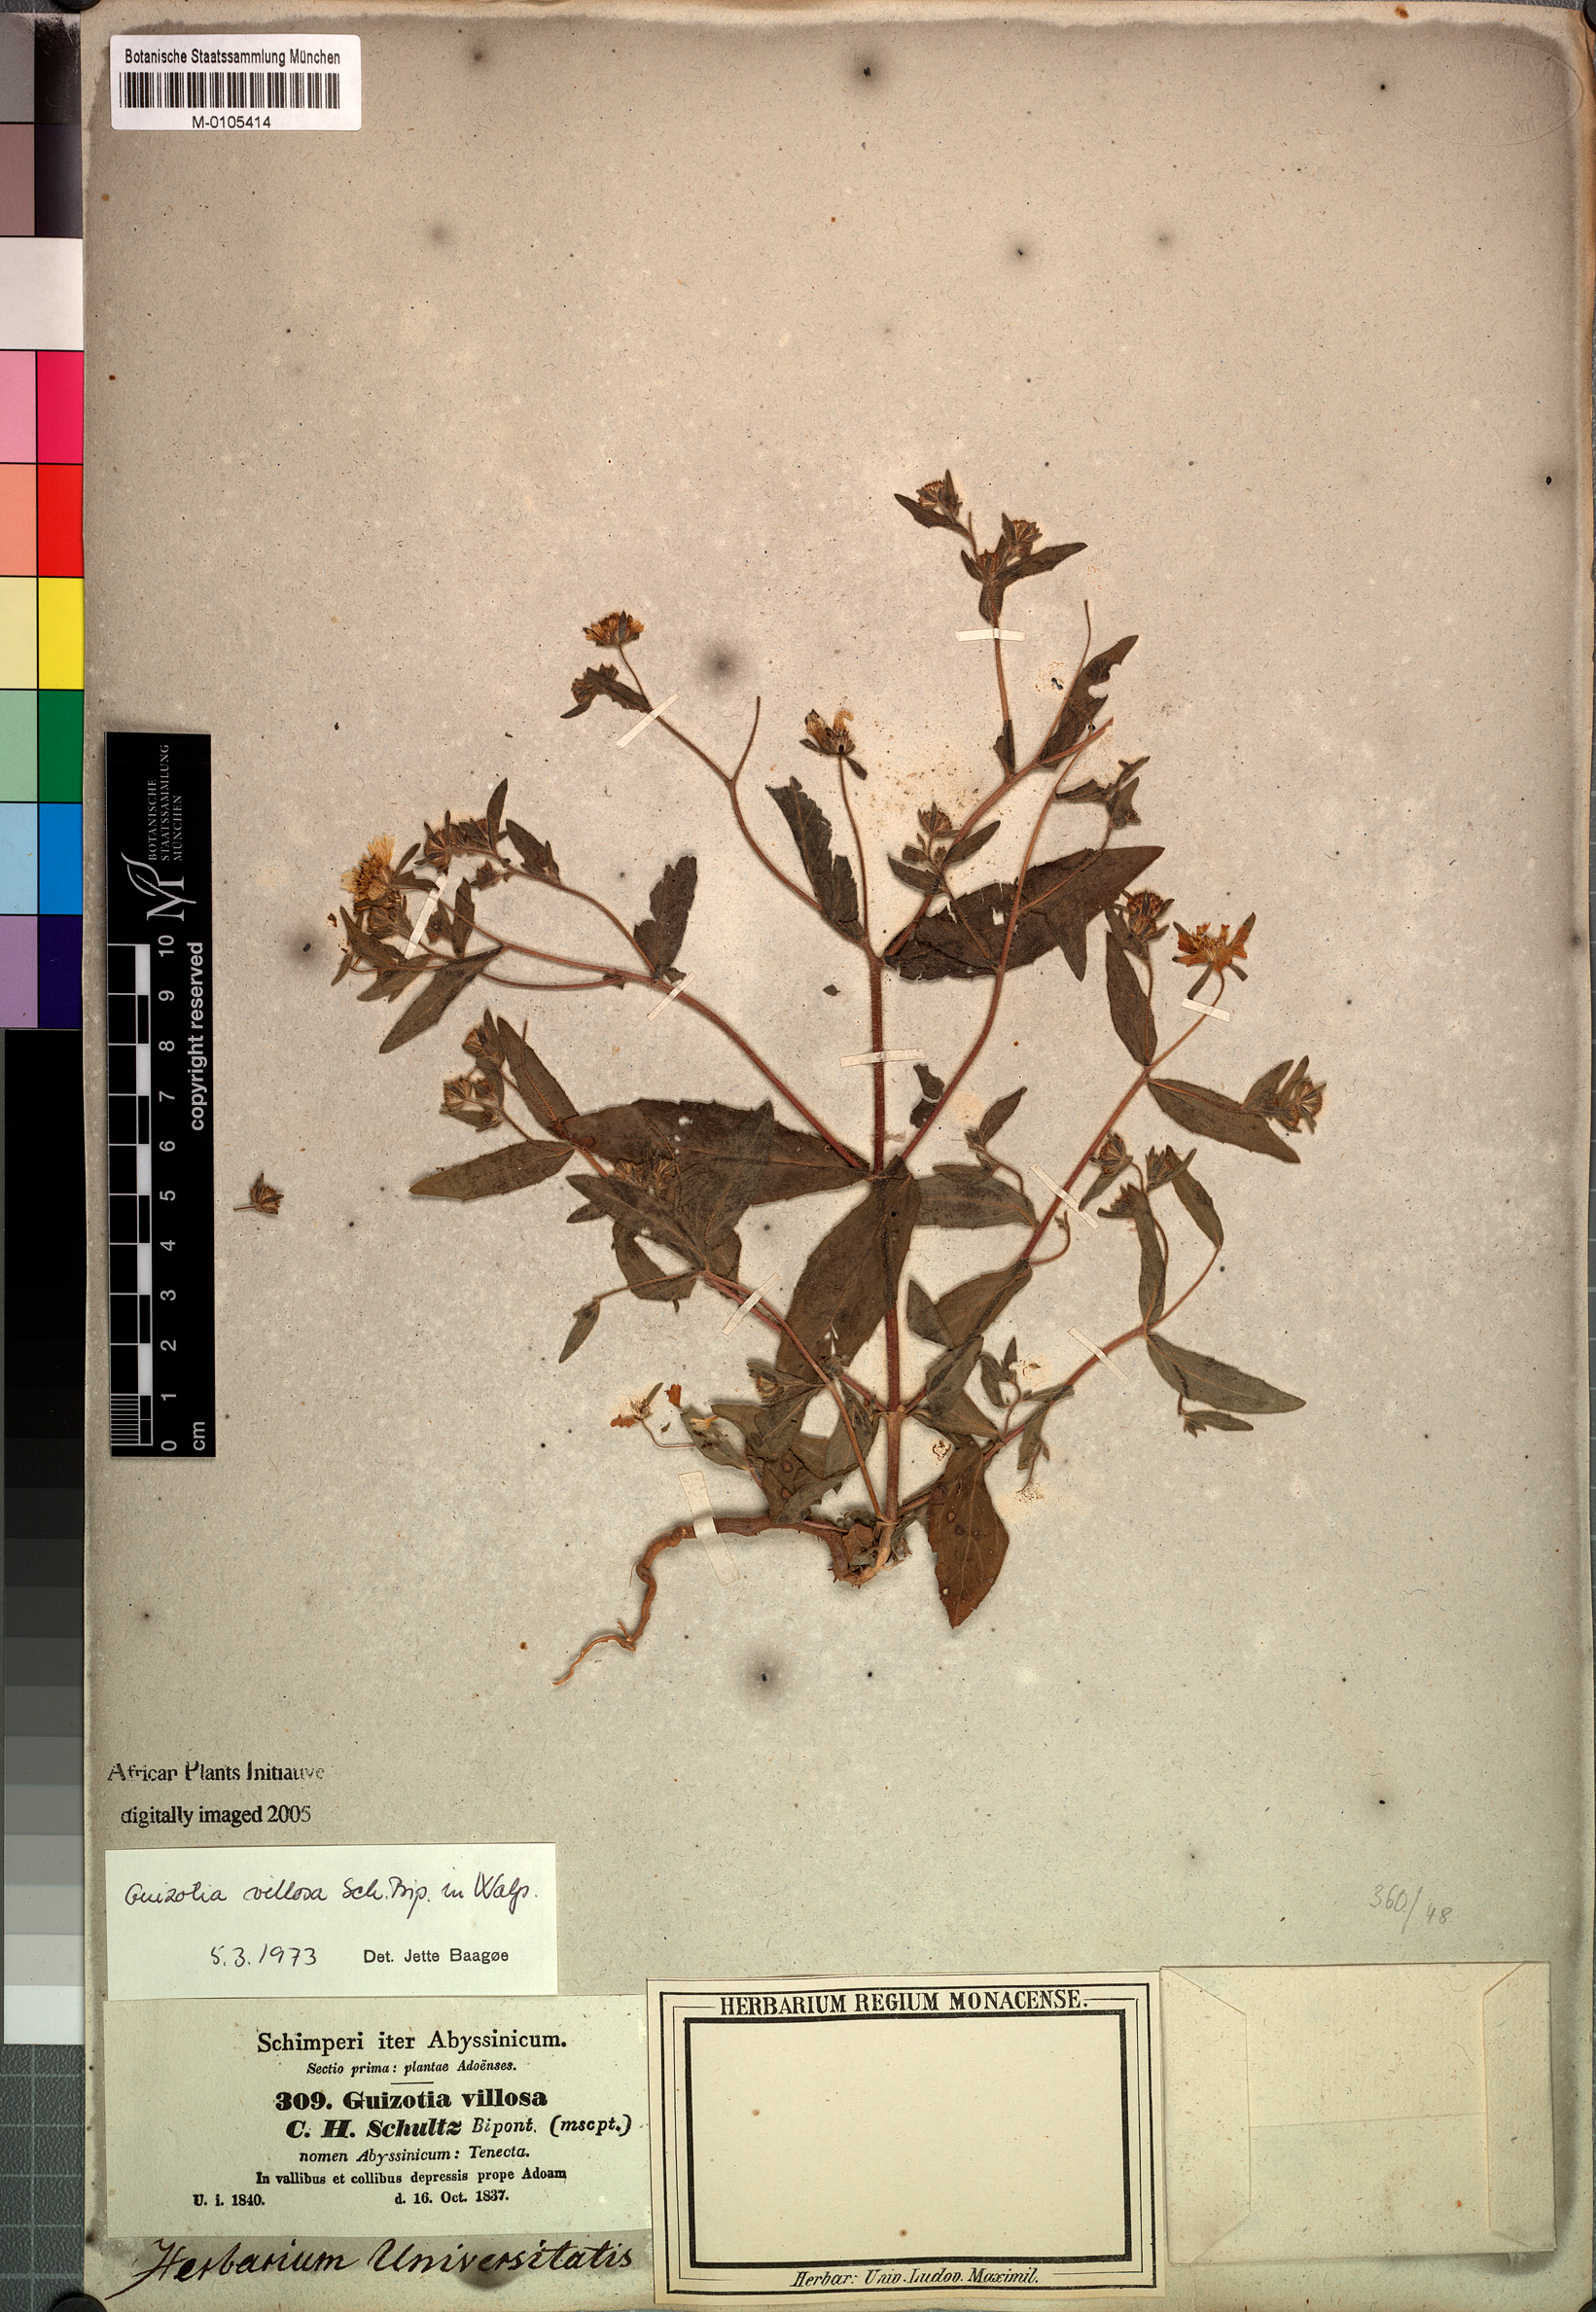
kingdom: Plantae
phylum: Tracheophyta
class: Magnoliopsida
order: Asterales
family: Asteraceae
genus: Guizotia
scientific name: Guizotia villosa
